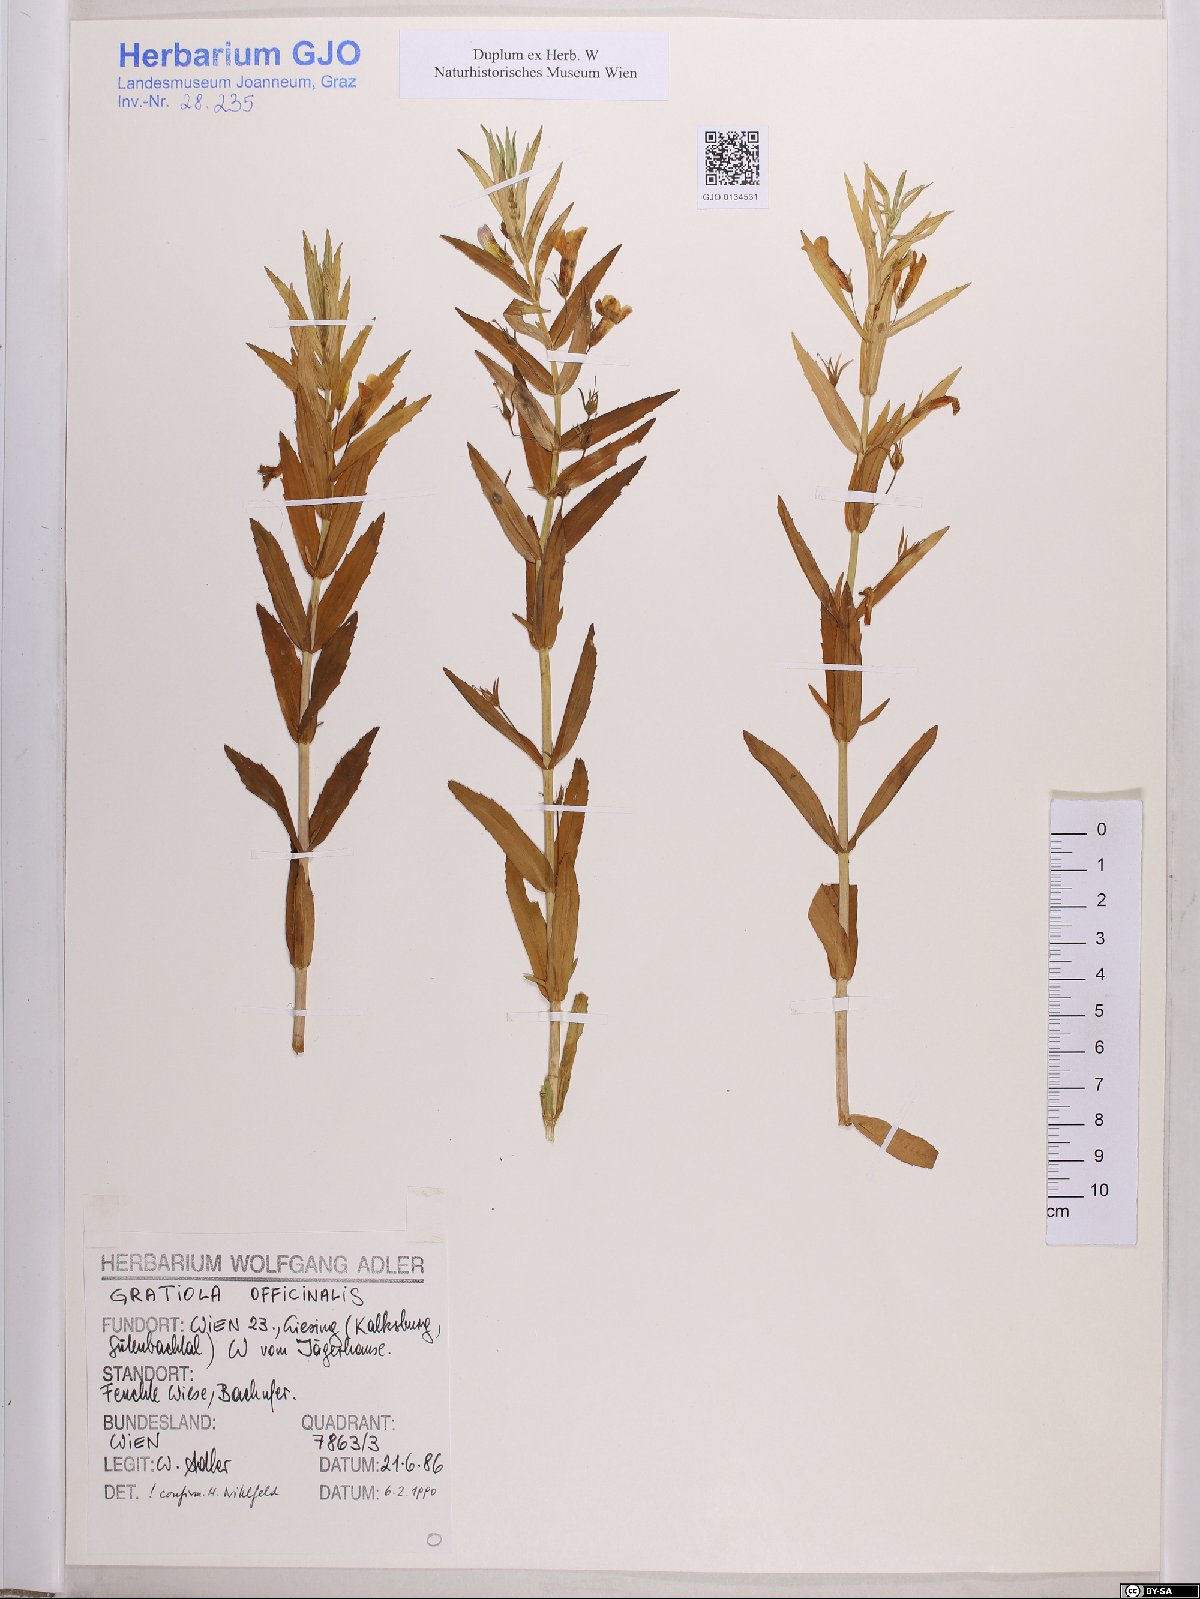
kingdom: Plantae
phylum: Tracheophyta
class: Magnoliopsida
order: Lamiales
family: Plantaginaceae
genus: Gratiola
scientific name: Gratiola officinalis
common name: Gratiola
